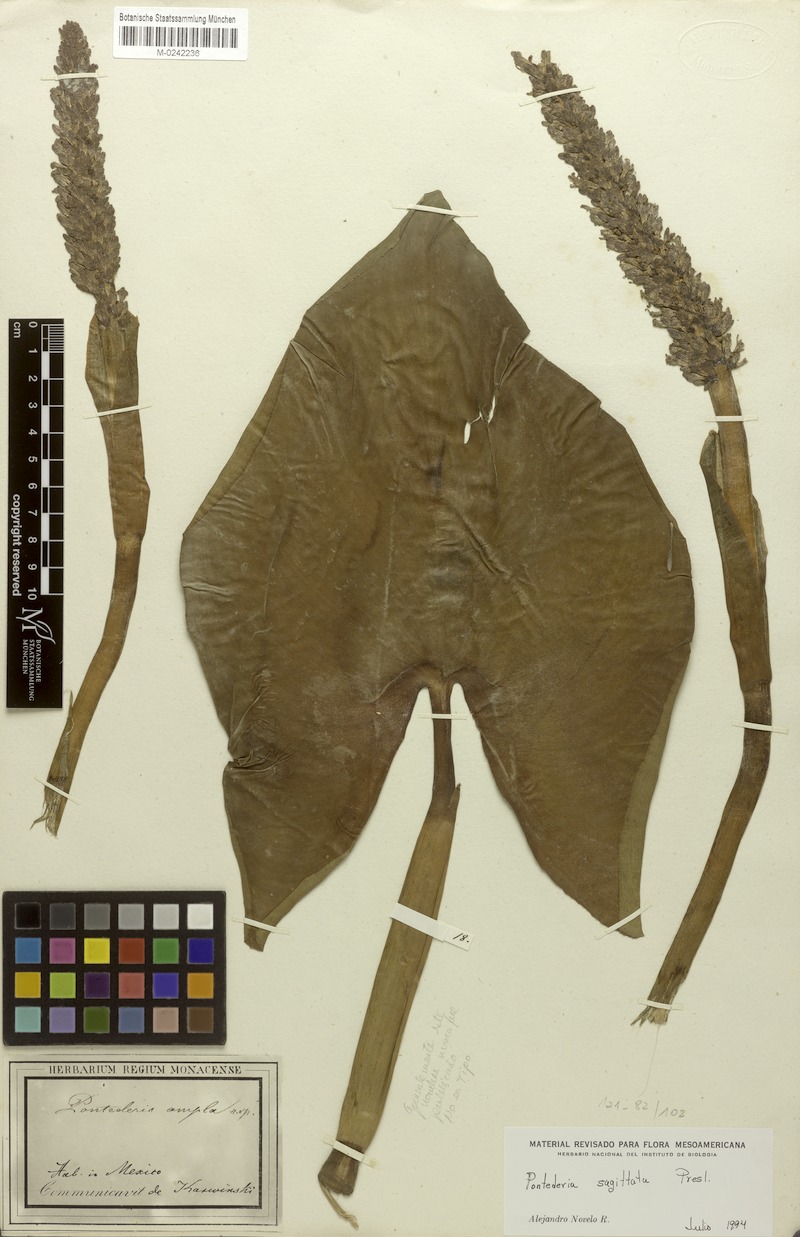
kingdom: Plantae
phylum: Tracheophyta
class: Liliopsida
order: Commelinales
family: Pontederiaceae
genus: Pontederia
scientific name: Pontederia sagittata
